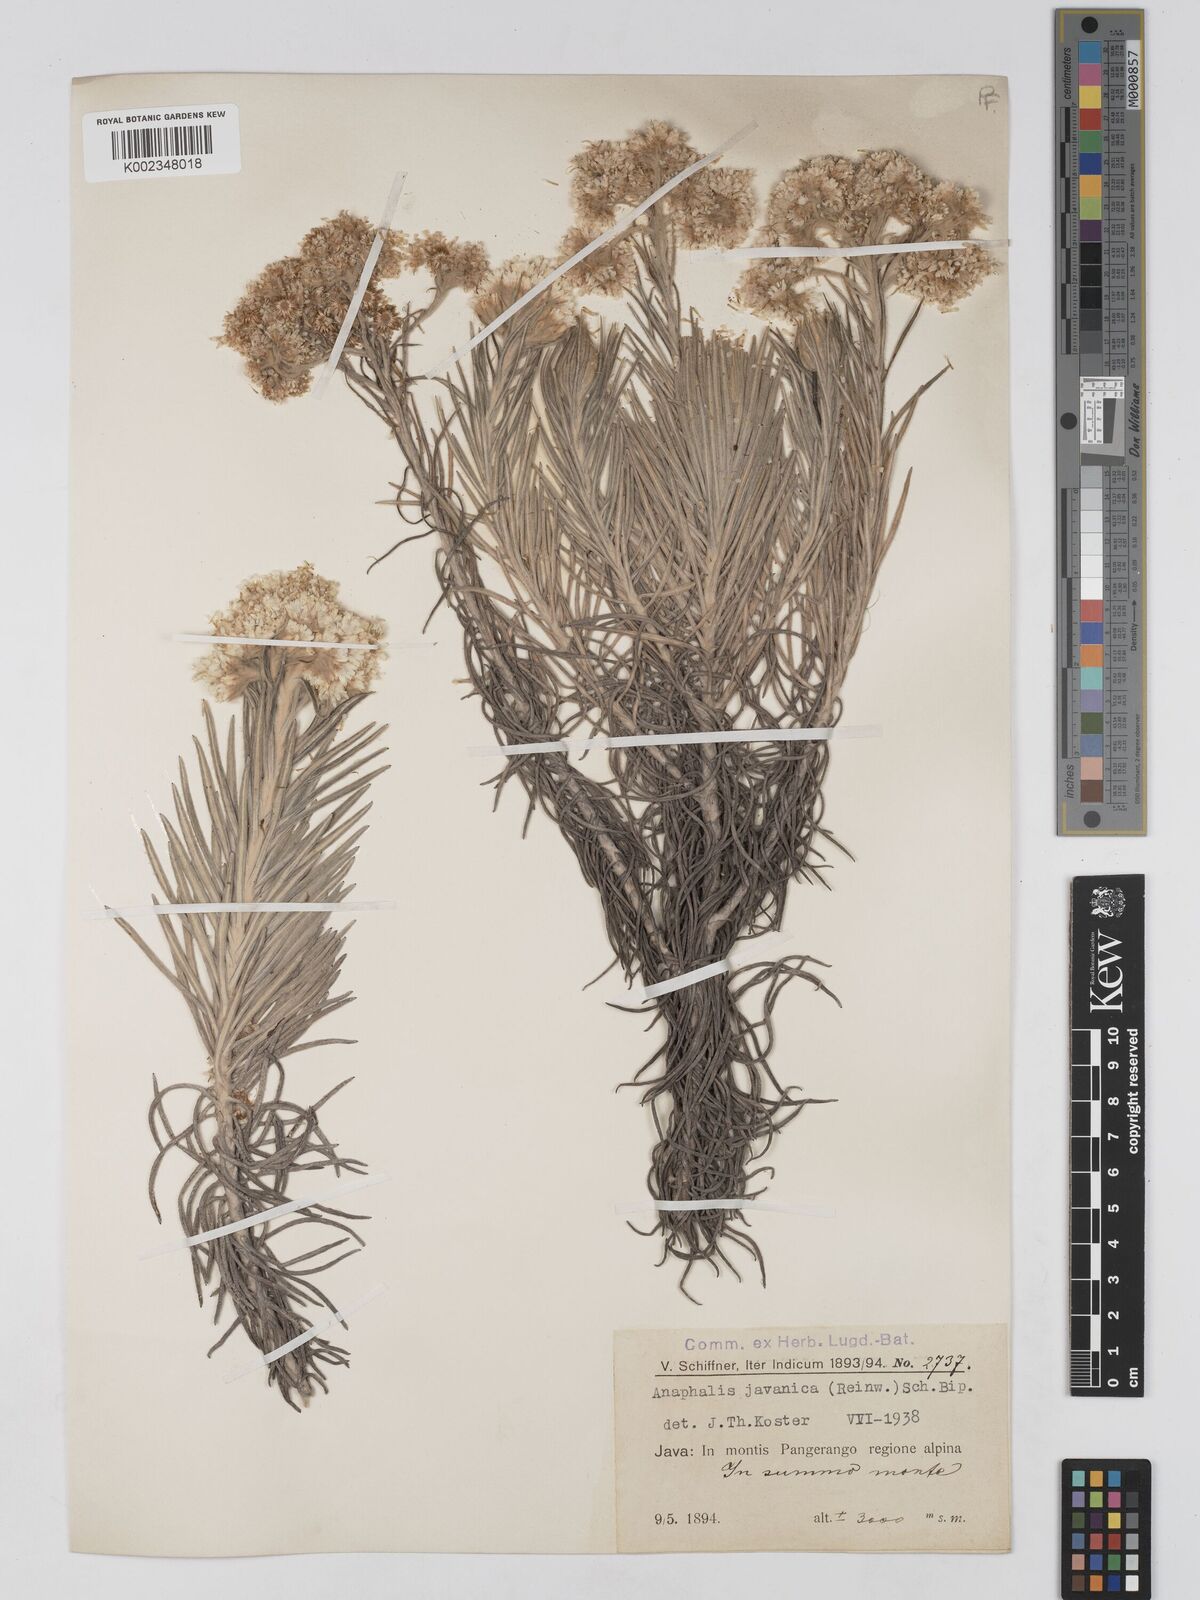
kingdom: Plantae
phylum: Tracheophyta
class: Magnoliopsida
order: Asterales
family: Asteraceae
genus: Anaphalis
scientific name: Anaphalis javanica
